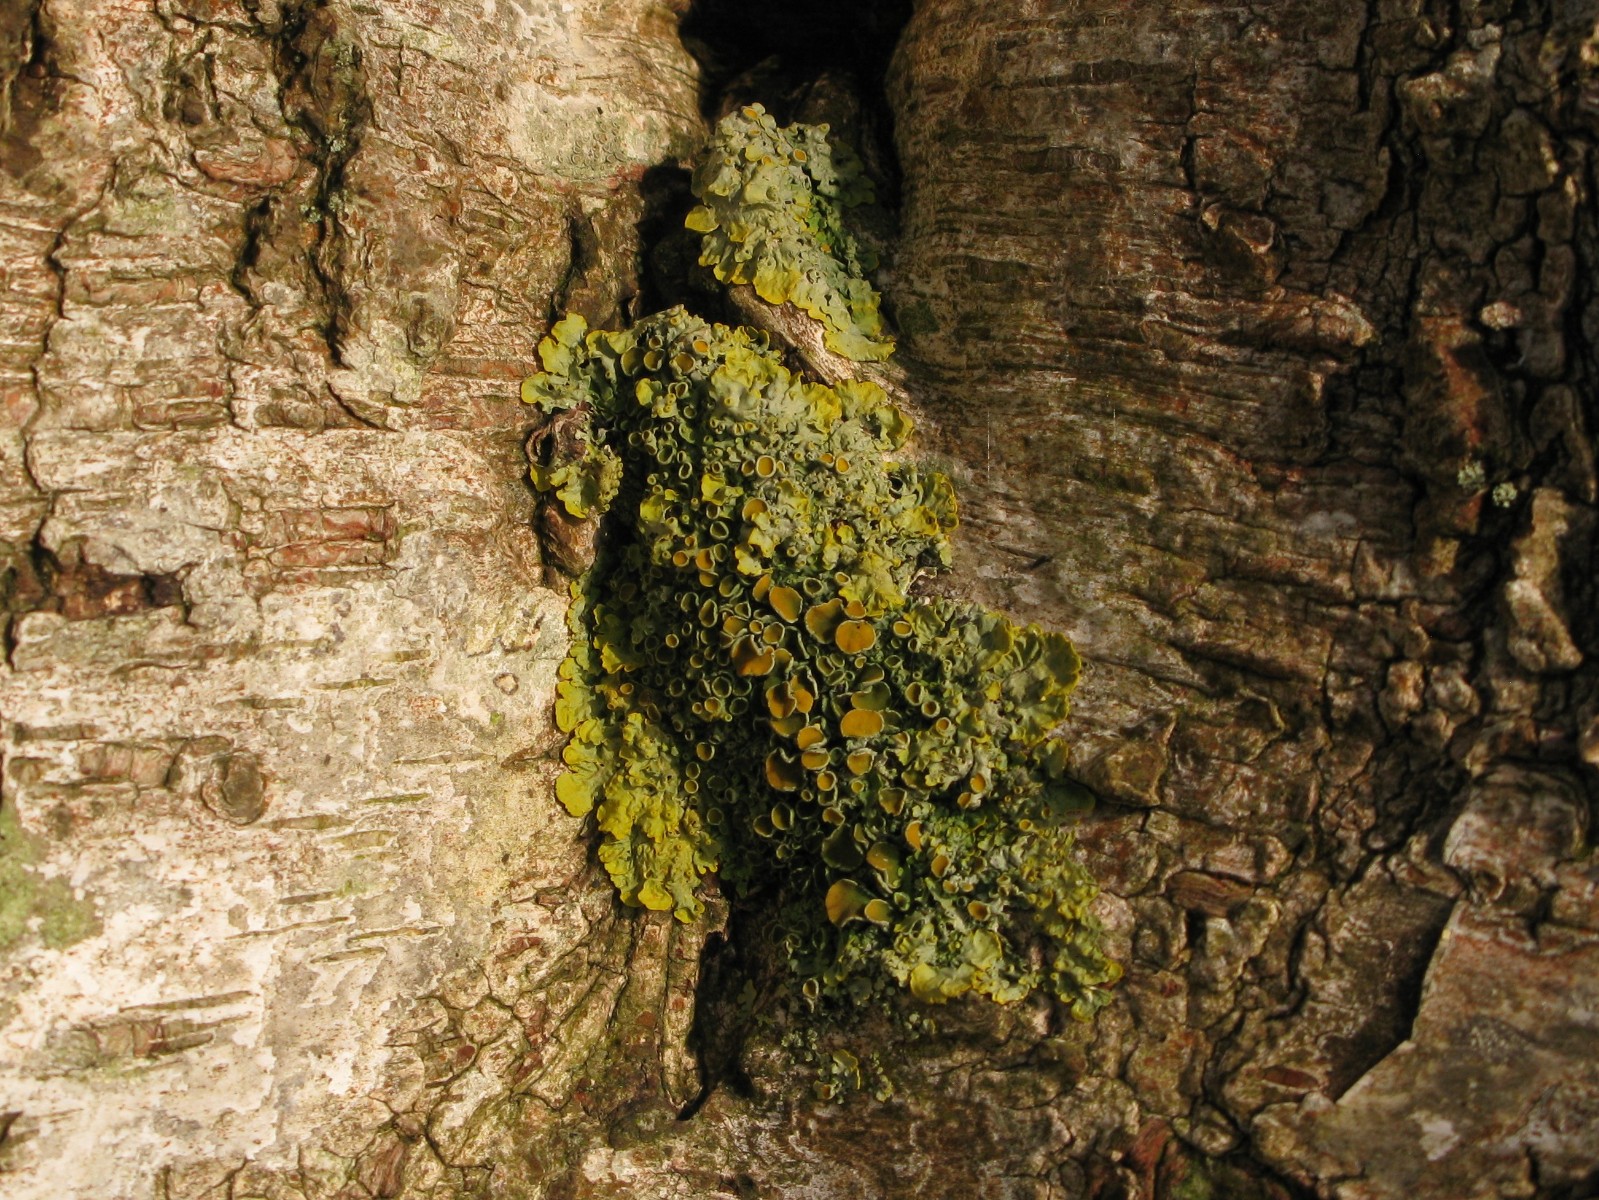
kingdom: Fungi
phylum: Ascomycota
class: Lecanoromycetes
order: Teloschistales
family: Teloschistaceae
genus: Xanthoria
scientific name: Xanthoria parietina
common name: almindelig væggelav
